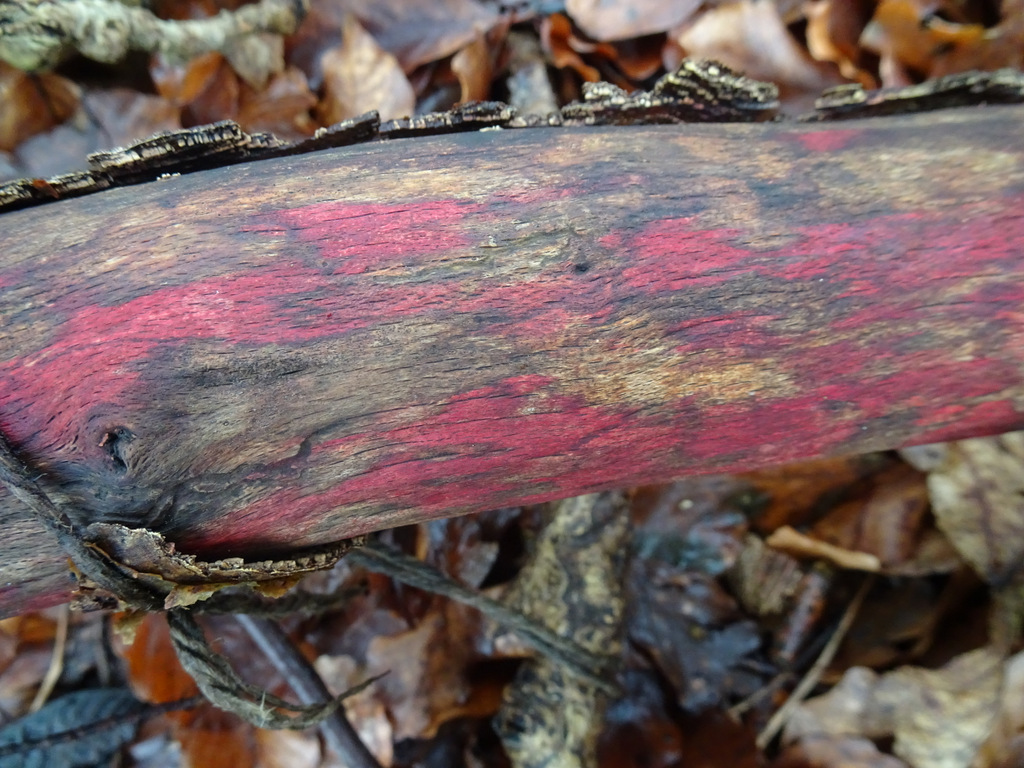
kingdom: Fungi
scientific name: Fungi
